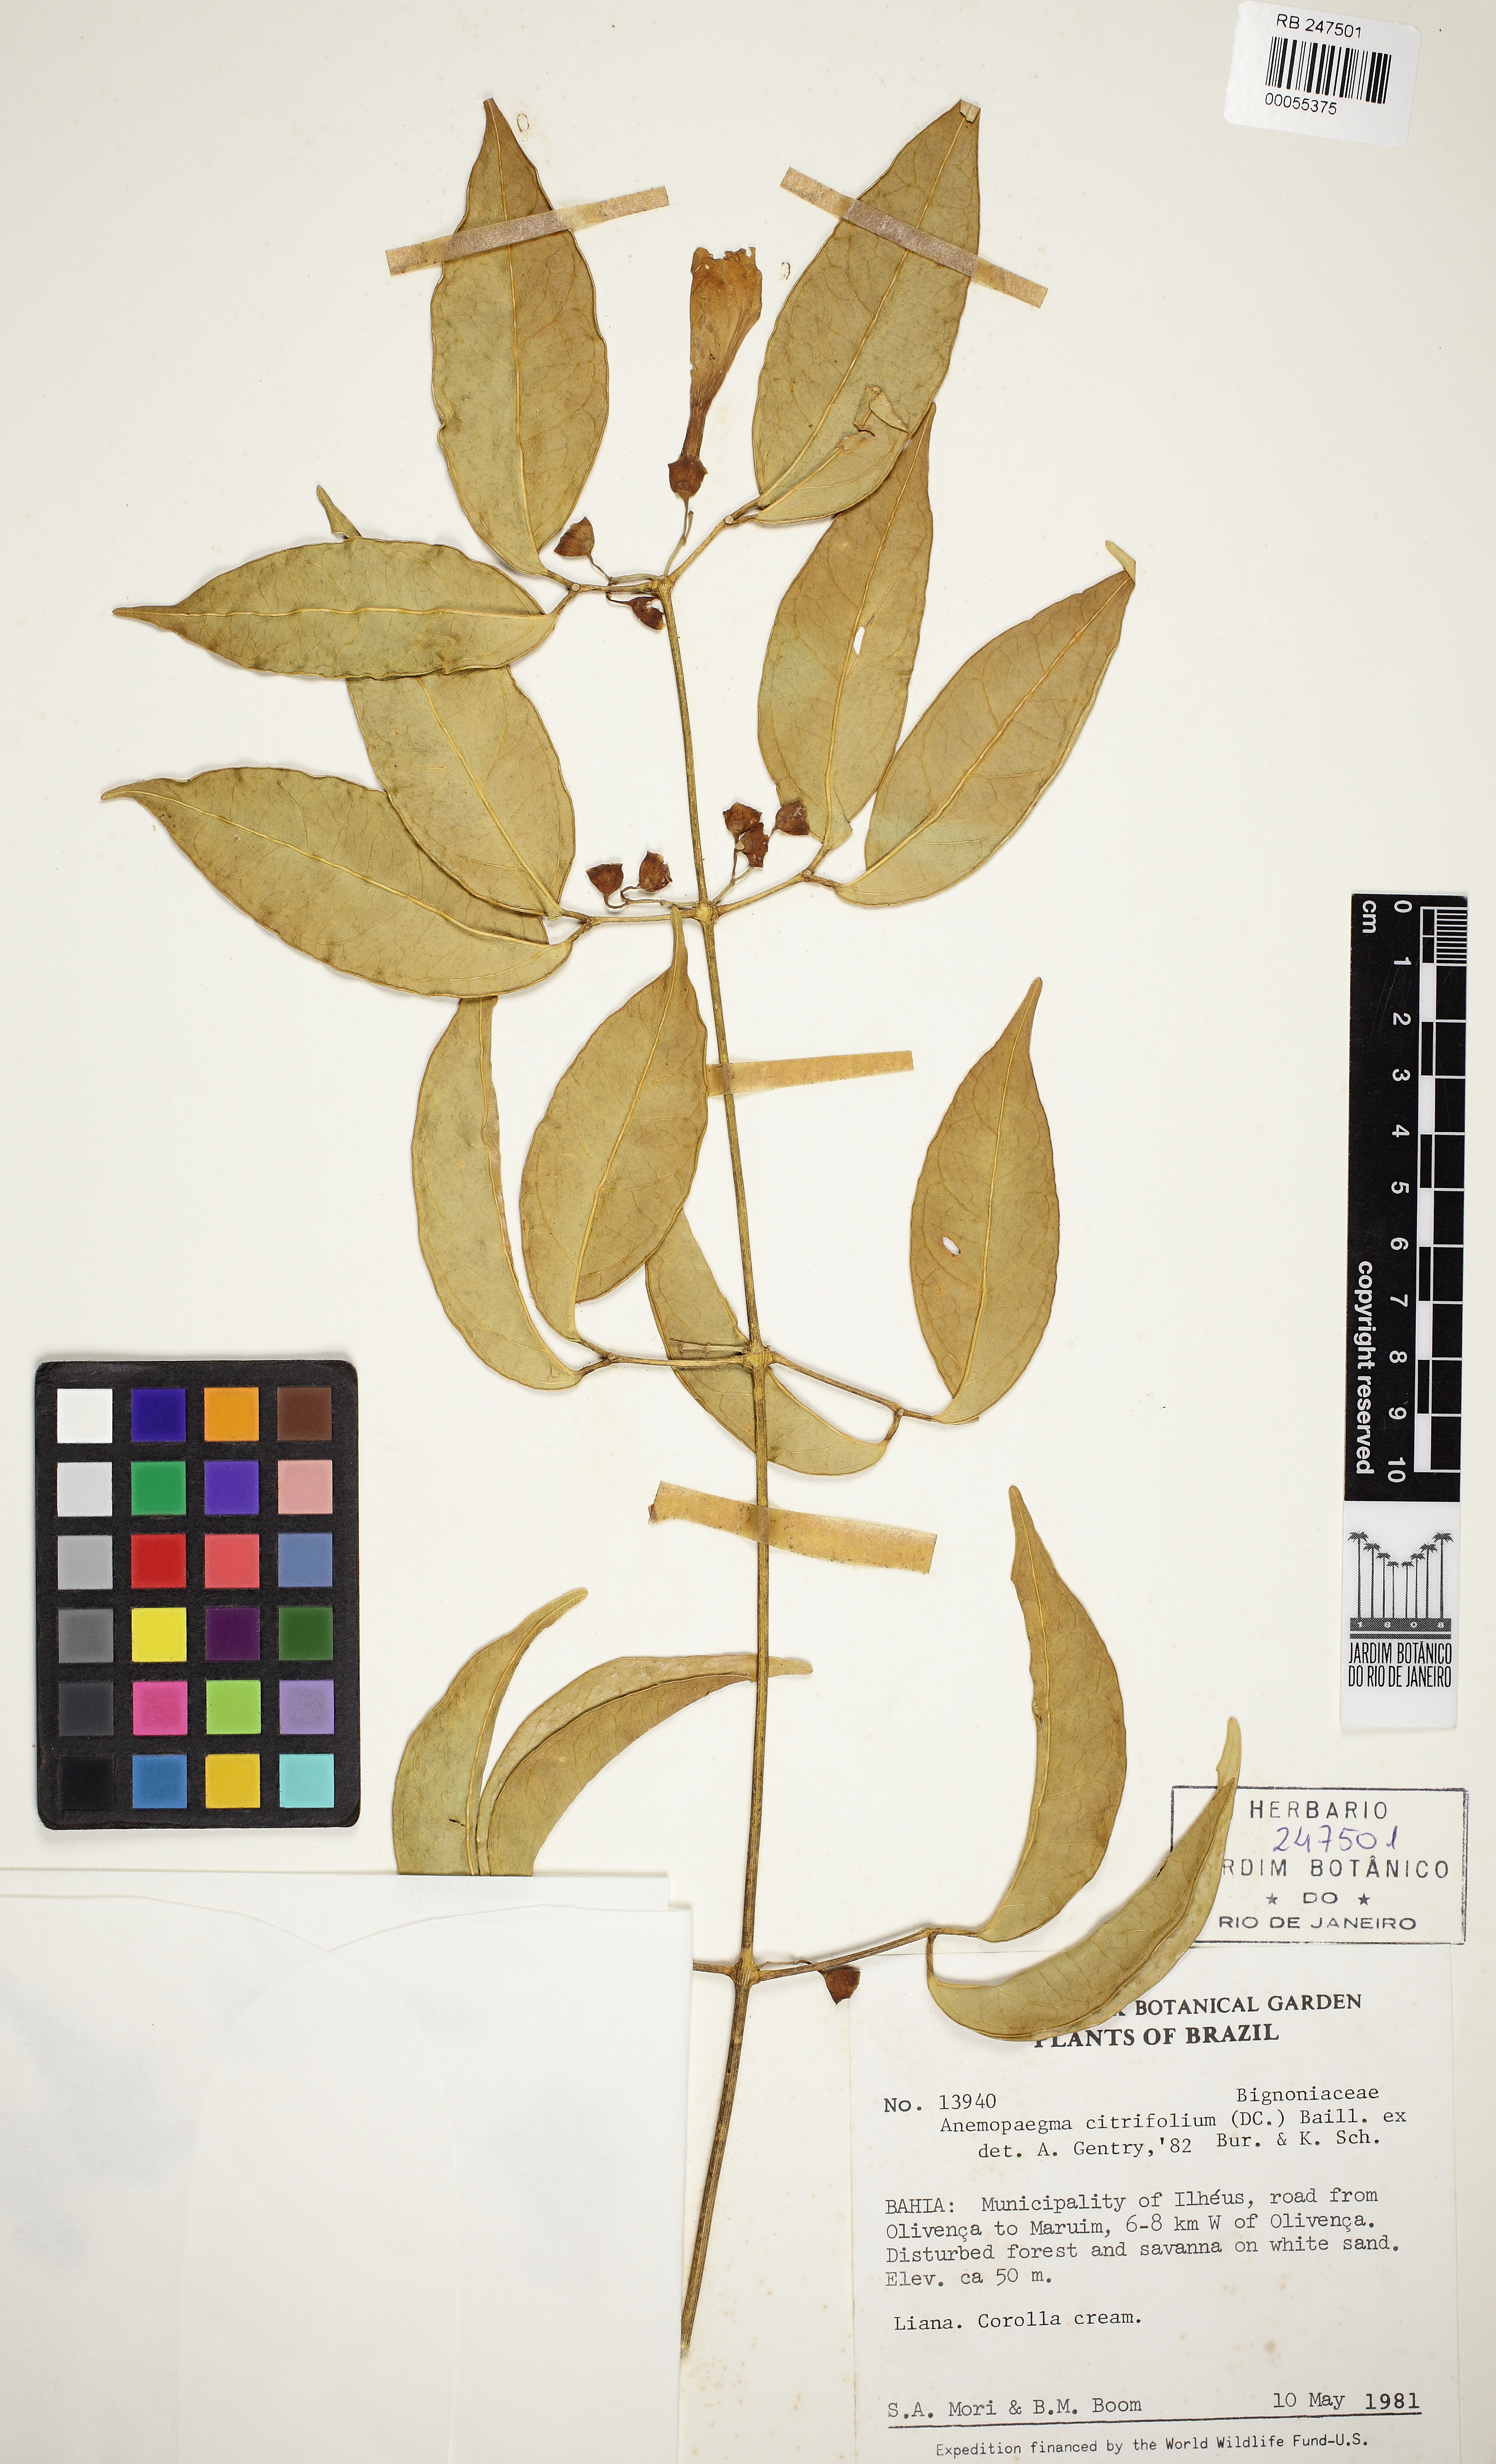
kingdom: Plantae
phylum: Tracheophyta
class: Magnoliopsida
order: Lamiales
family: Bignoniaceae
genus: Anemopaegma
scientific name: Anemopaegma
